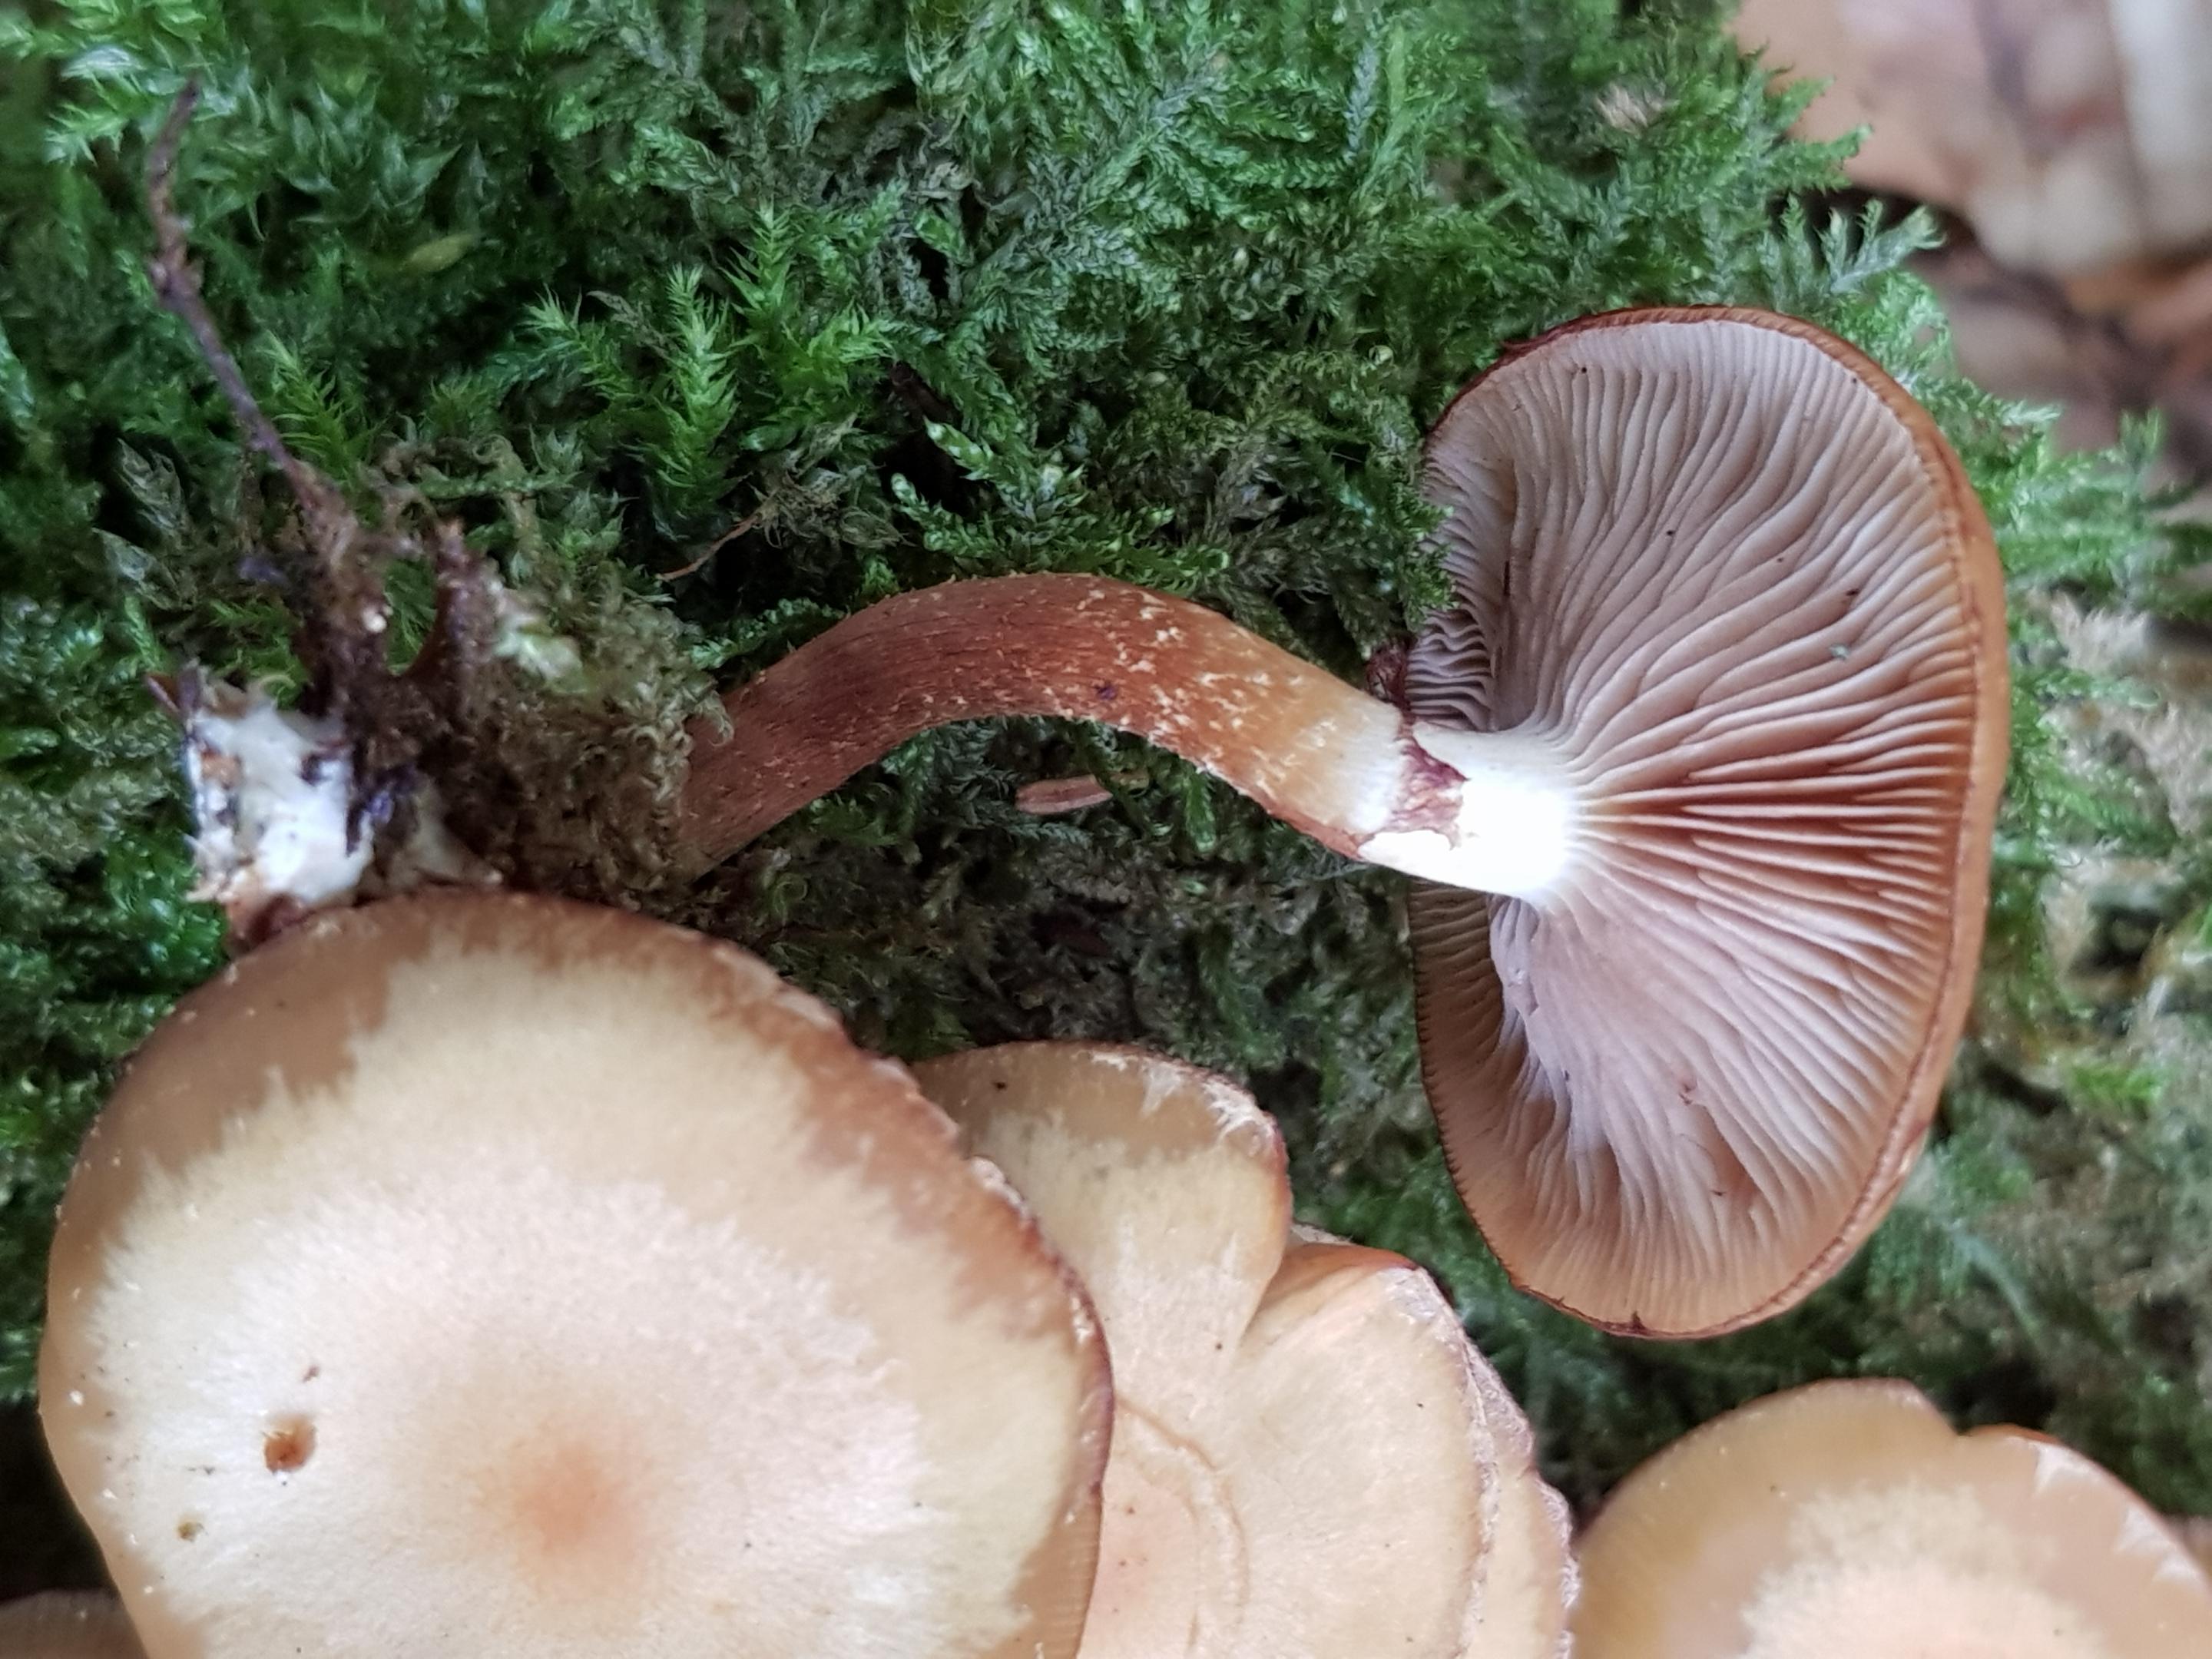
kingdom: Fungi
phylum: Basidiomycota
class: Agaricomycetes
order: Agaricales
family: Strophariaceae
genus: Kuehneromyces
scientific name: Kuehneromyces mutabilis
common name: foranderlig skælhat
